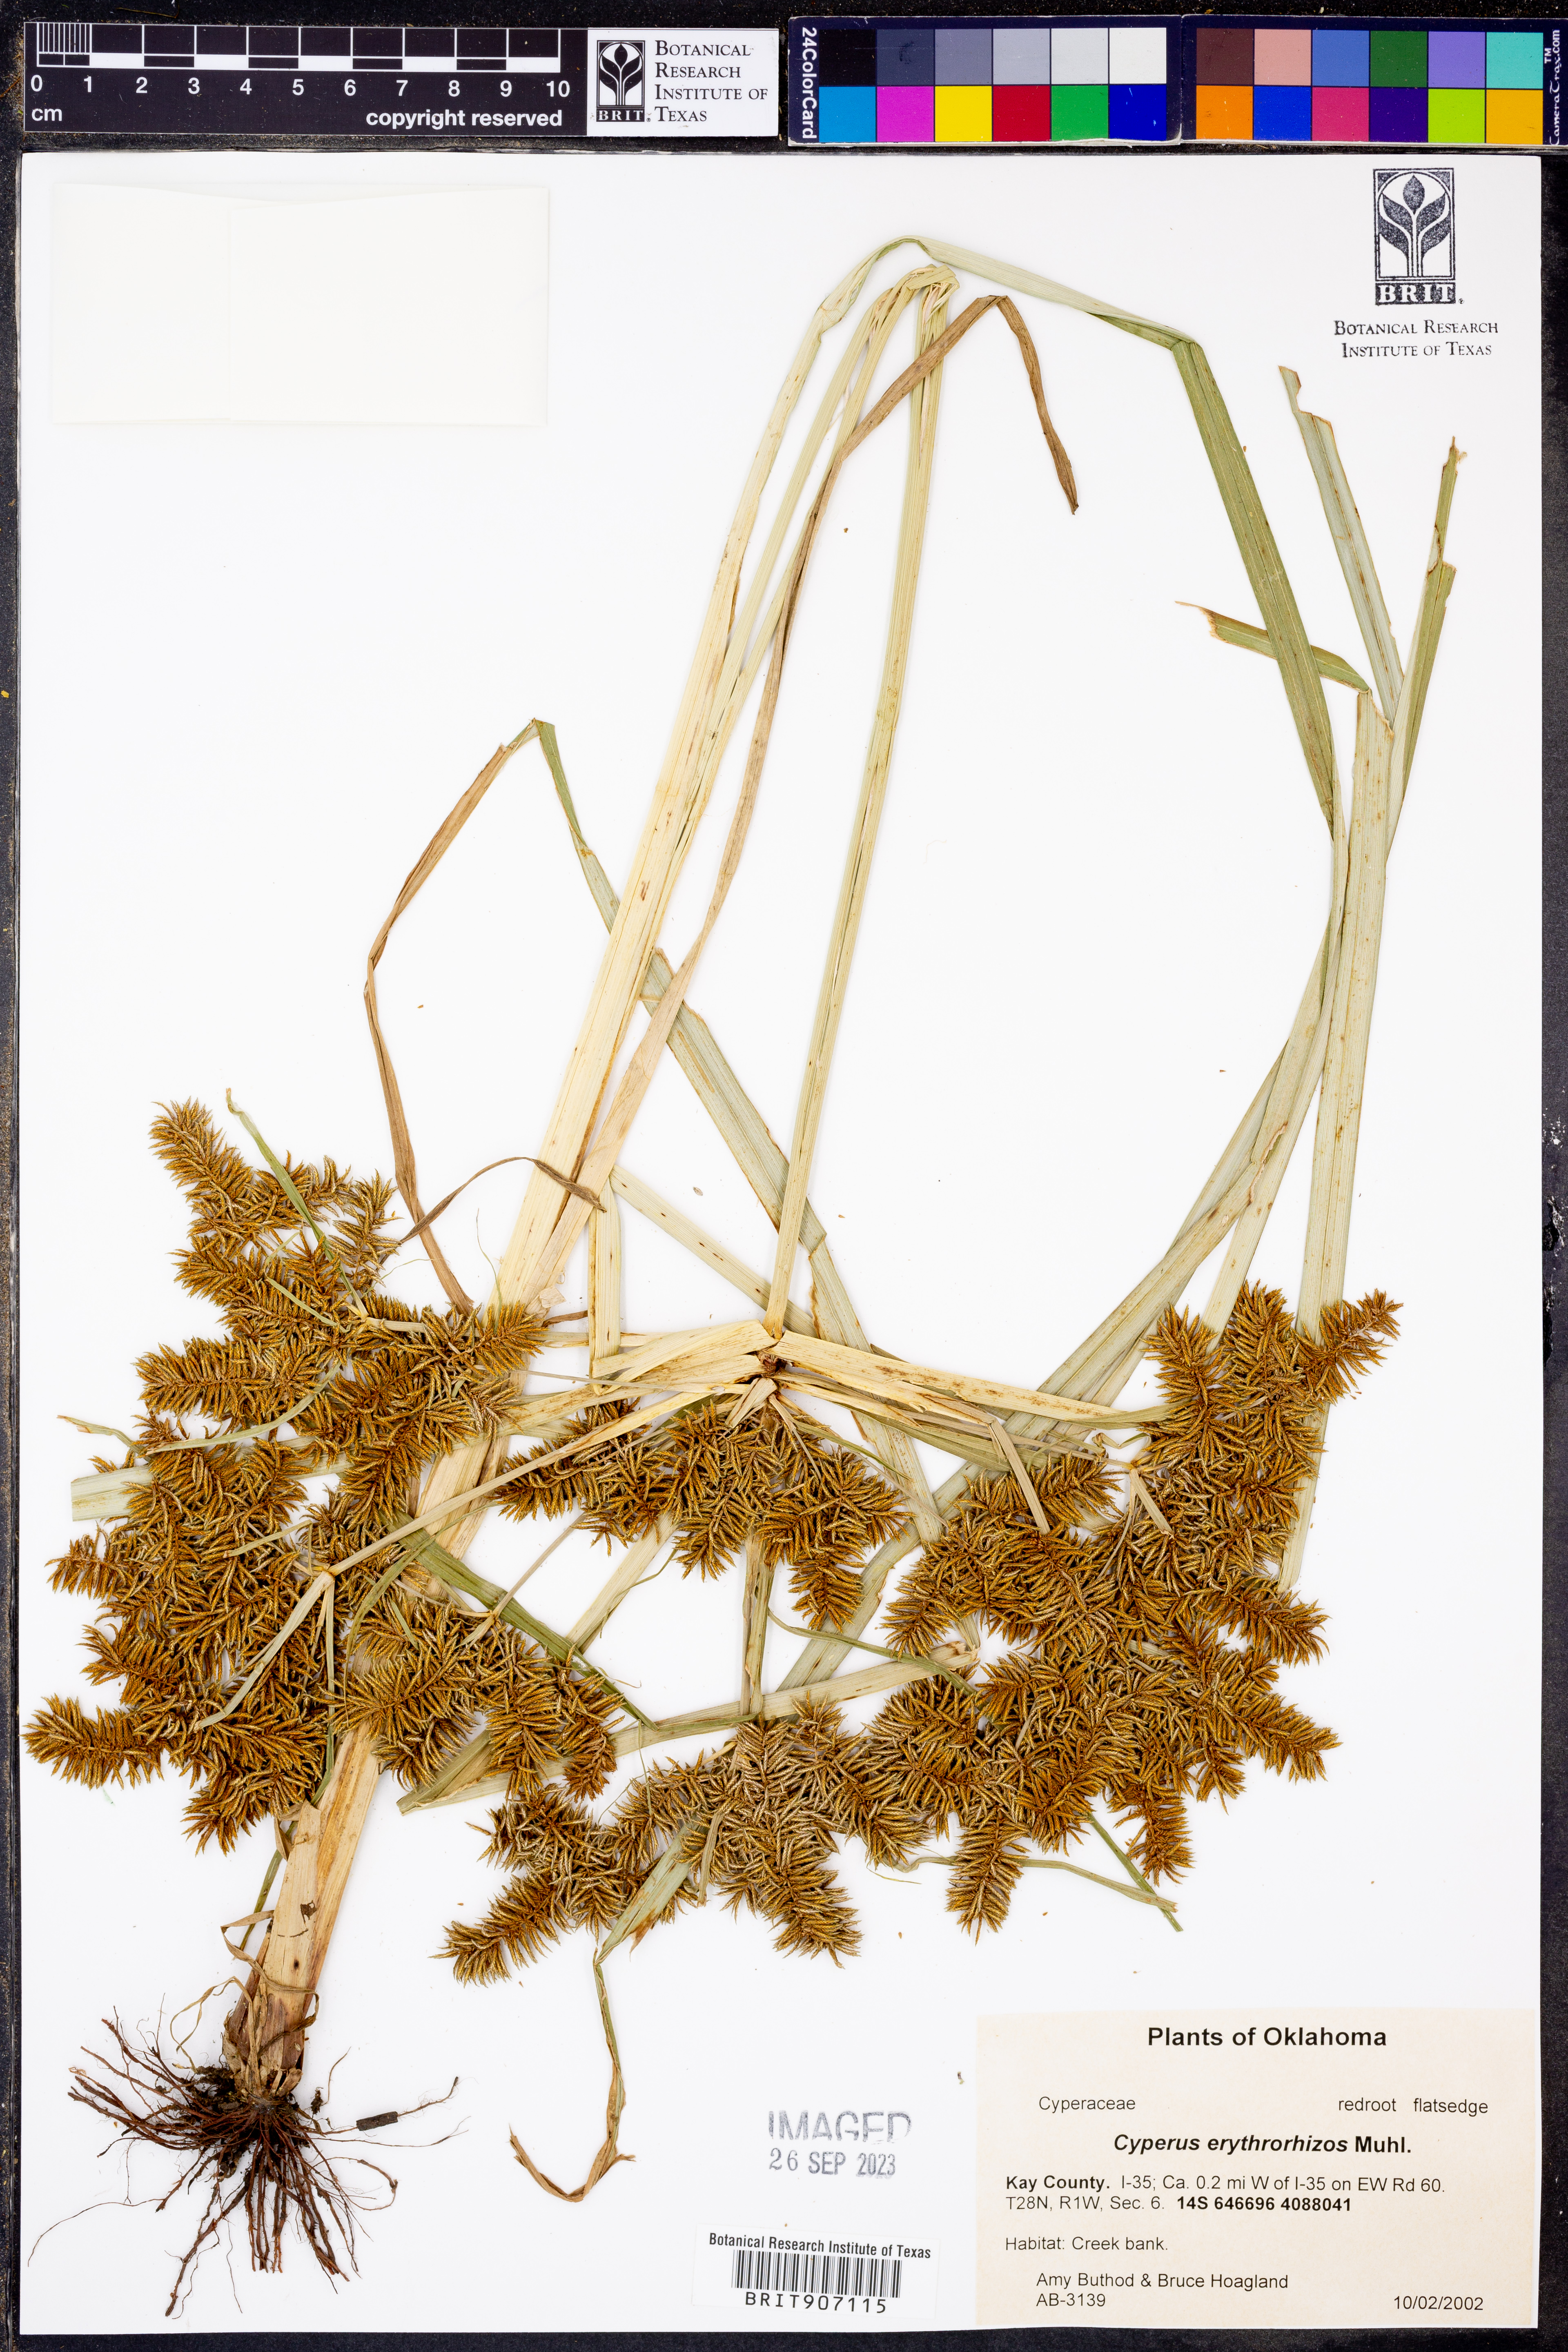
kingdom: Plantae
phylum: Tracheophyta
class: Liliopsida
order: Poales
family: Cyperaceae
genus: Cyperus
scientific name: Cyperus erythrorhizos
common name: Red-root flat sedge
